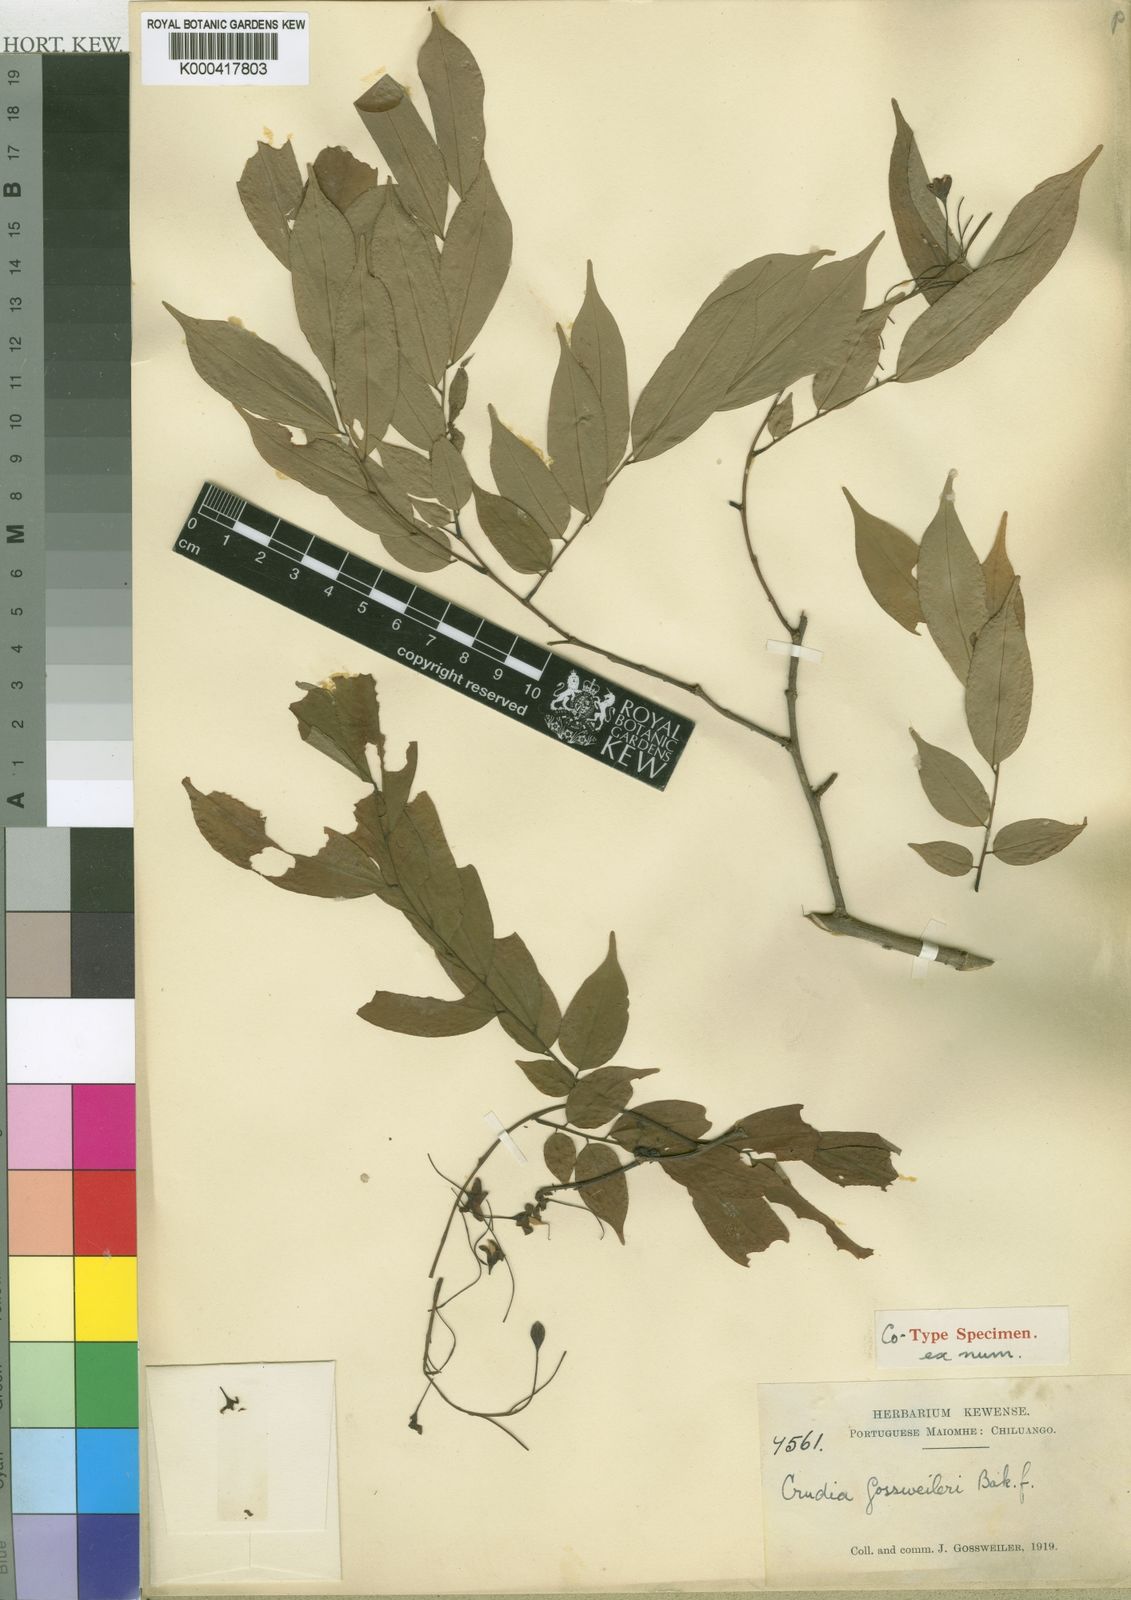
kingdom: Plantae
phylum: Tracheophyta
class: Magnoliopsida
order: Fabales
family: Fabaceae
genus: Crudia
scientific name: Crudia gabonensis
